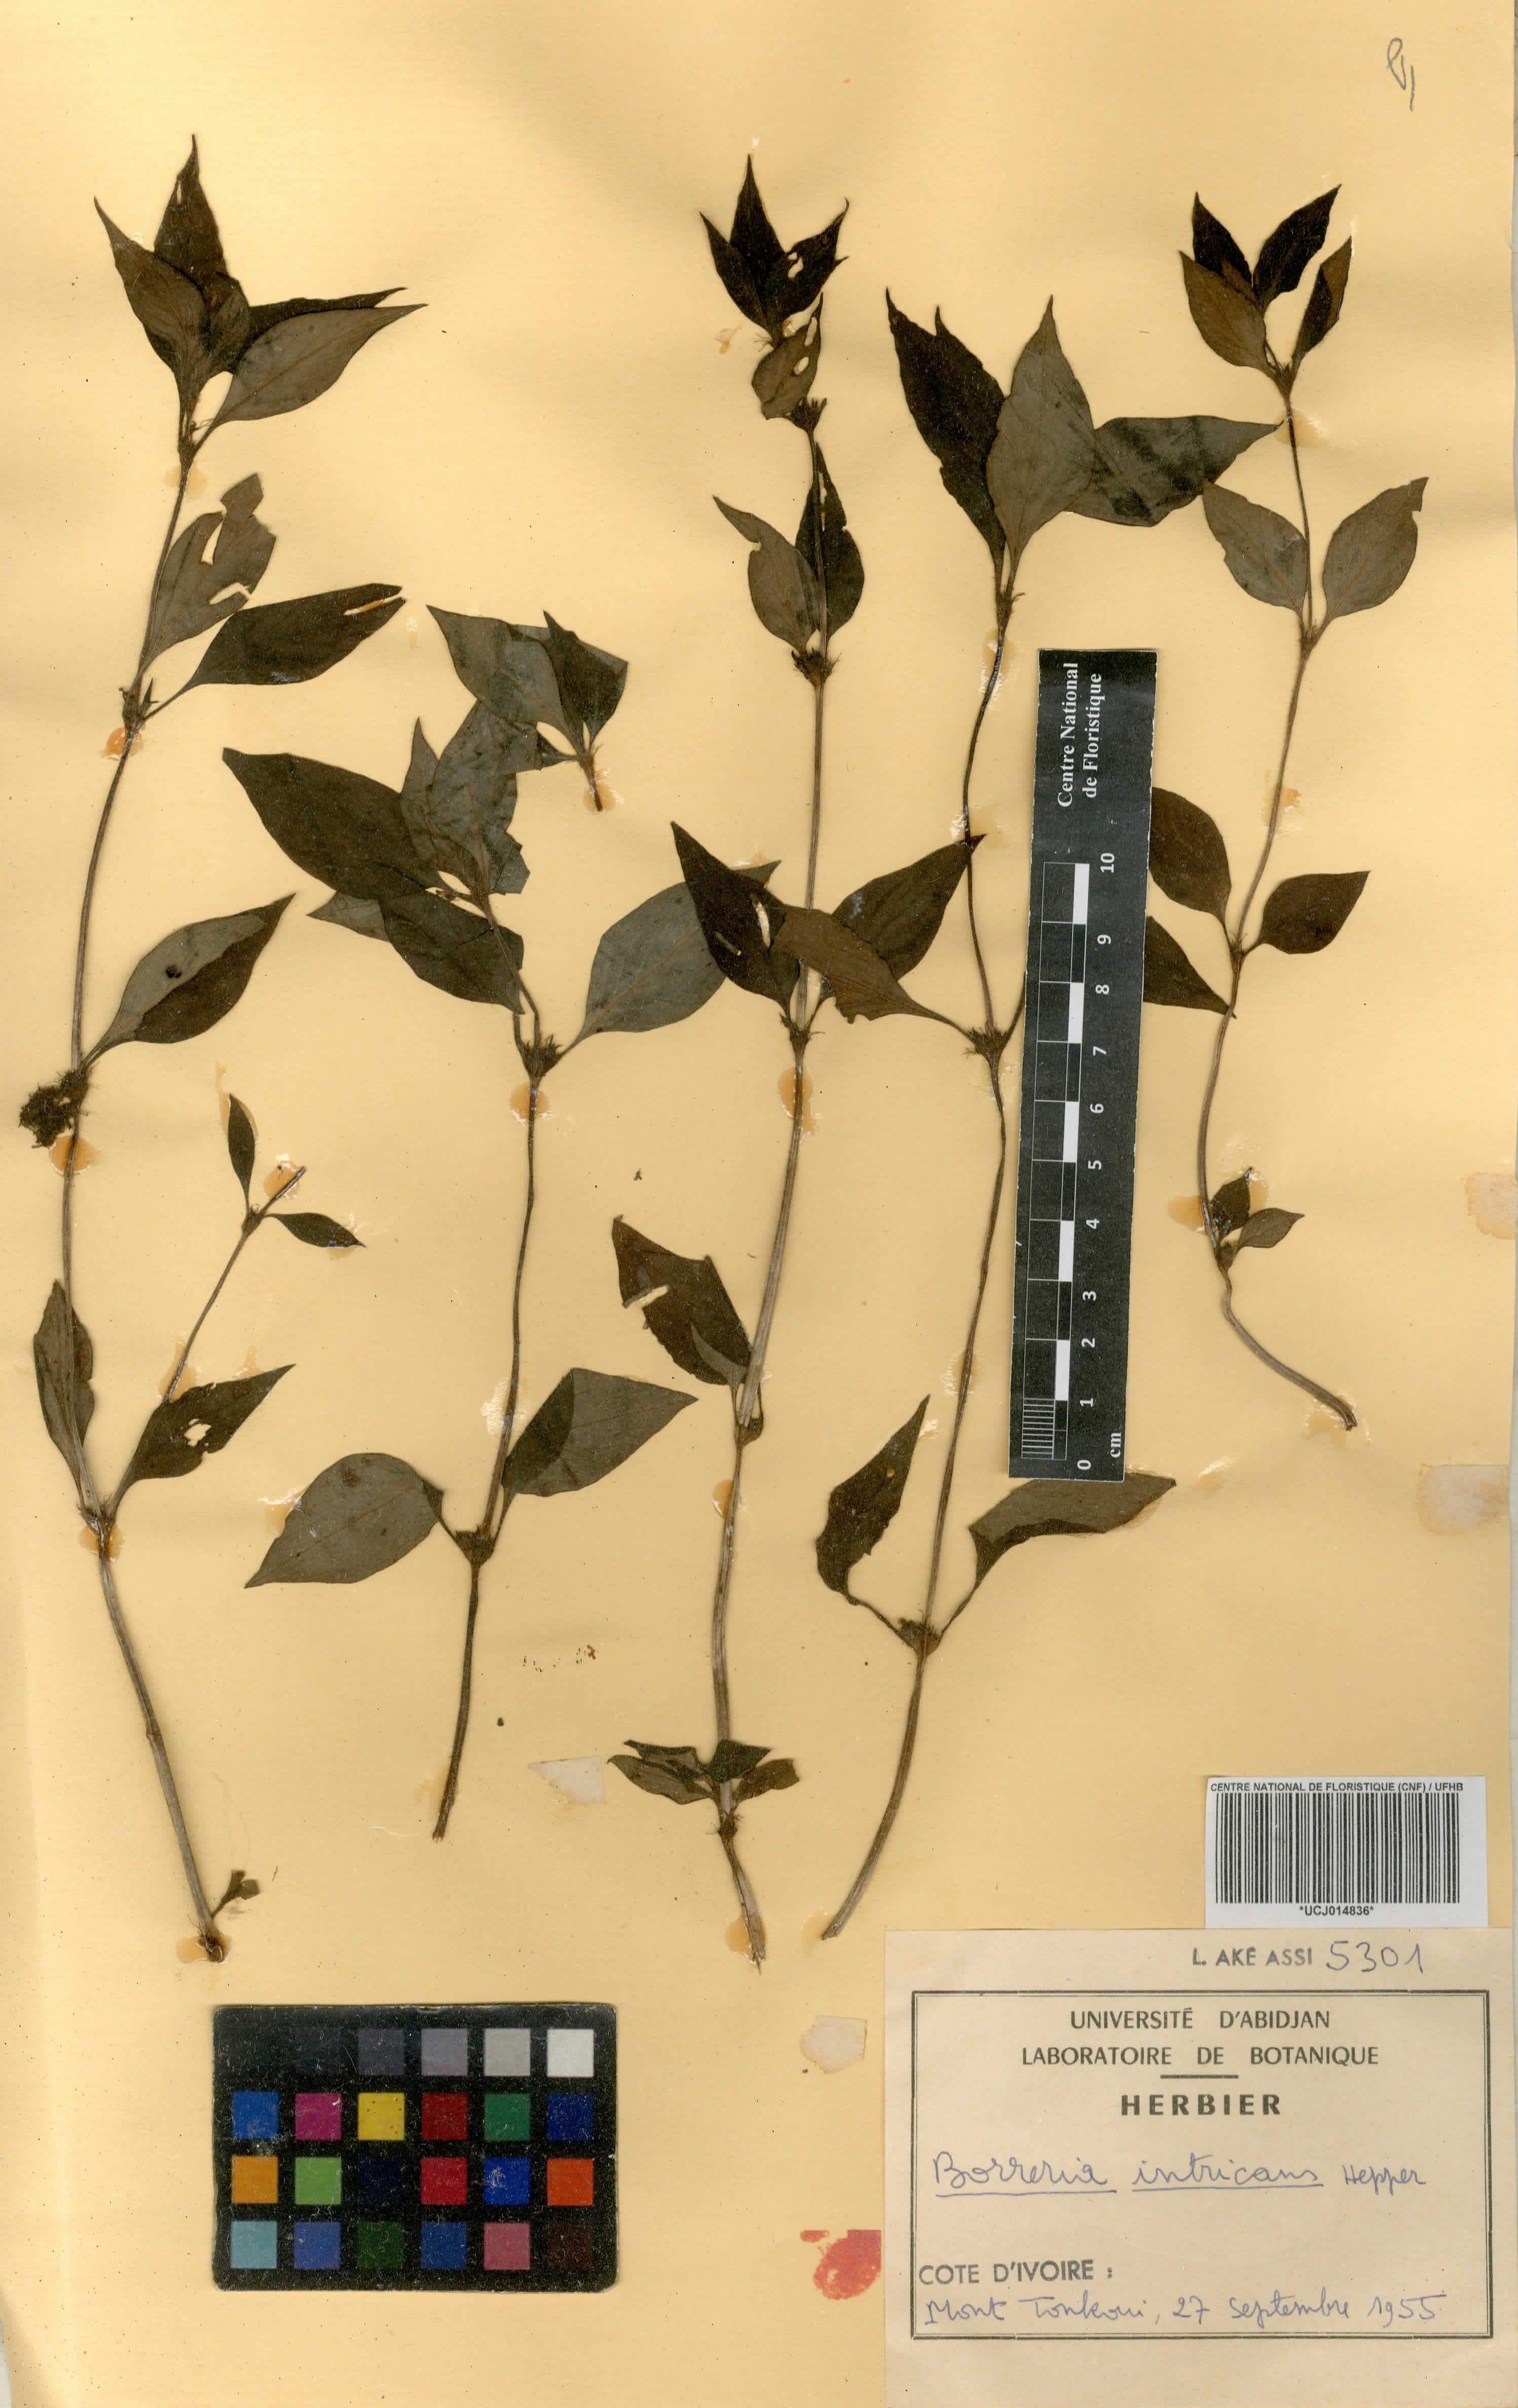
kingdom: Plantae
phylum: Tracheophyta
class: Magnoliopsida
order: Gentianales
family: Rubiaceae
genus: Spermacoce
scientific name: Spermacoce intricans
